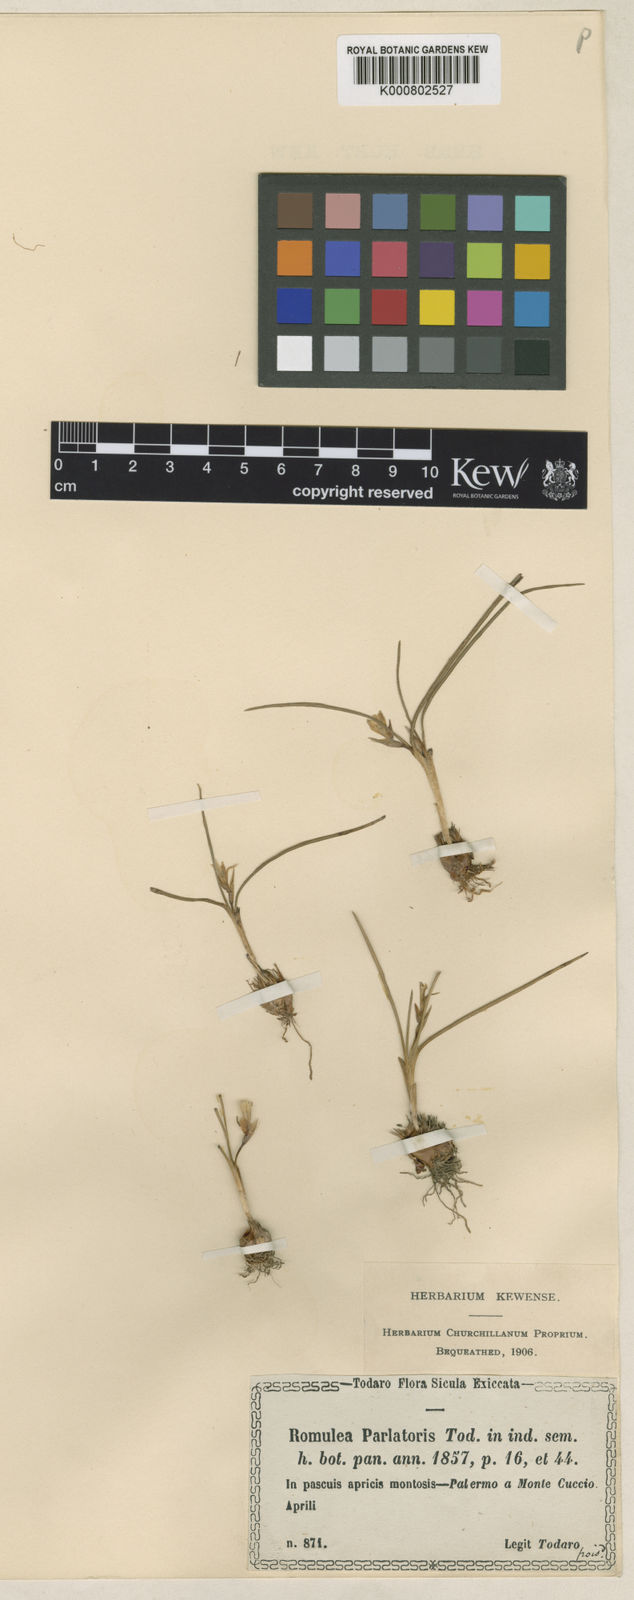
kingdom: Plantae
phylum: Tracheophyta
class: Liliopsida
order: Asparagales
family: Iridaceae
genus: Romulea
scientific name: Romulea columnae
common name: Sand-crocus
